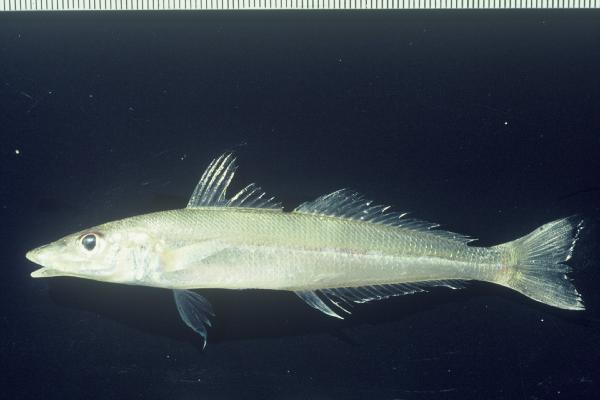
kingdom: Animalia
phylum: Chordata
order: Perciformes
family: Sillaginidae
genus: Sillaginopodys
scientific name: Sillaginopodys chondropus
